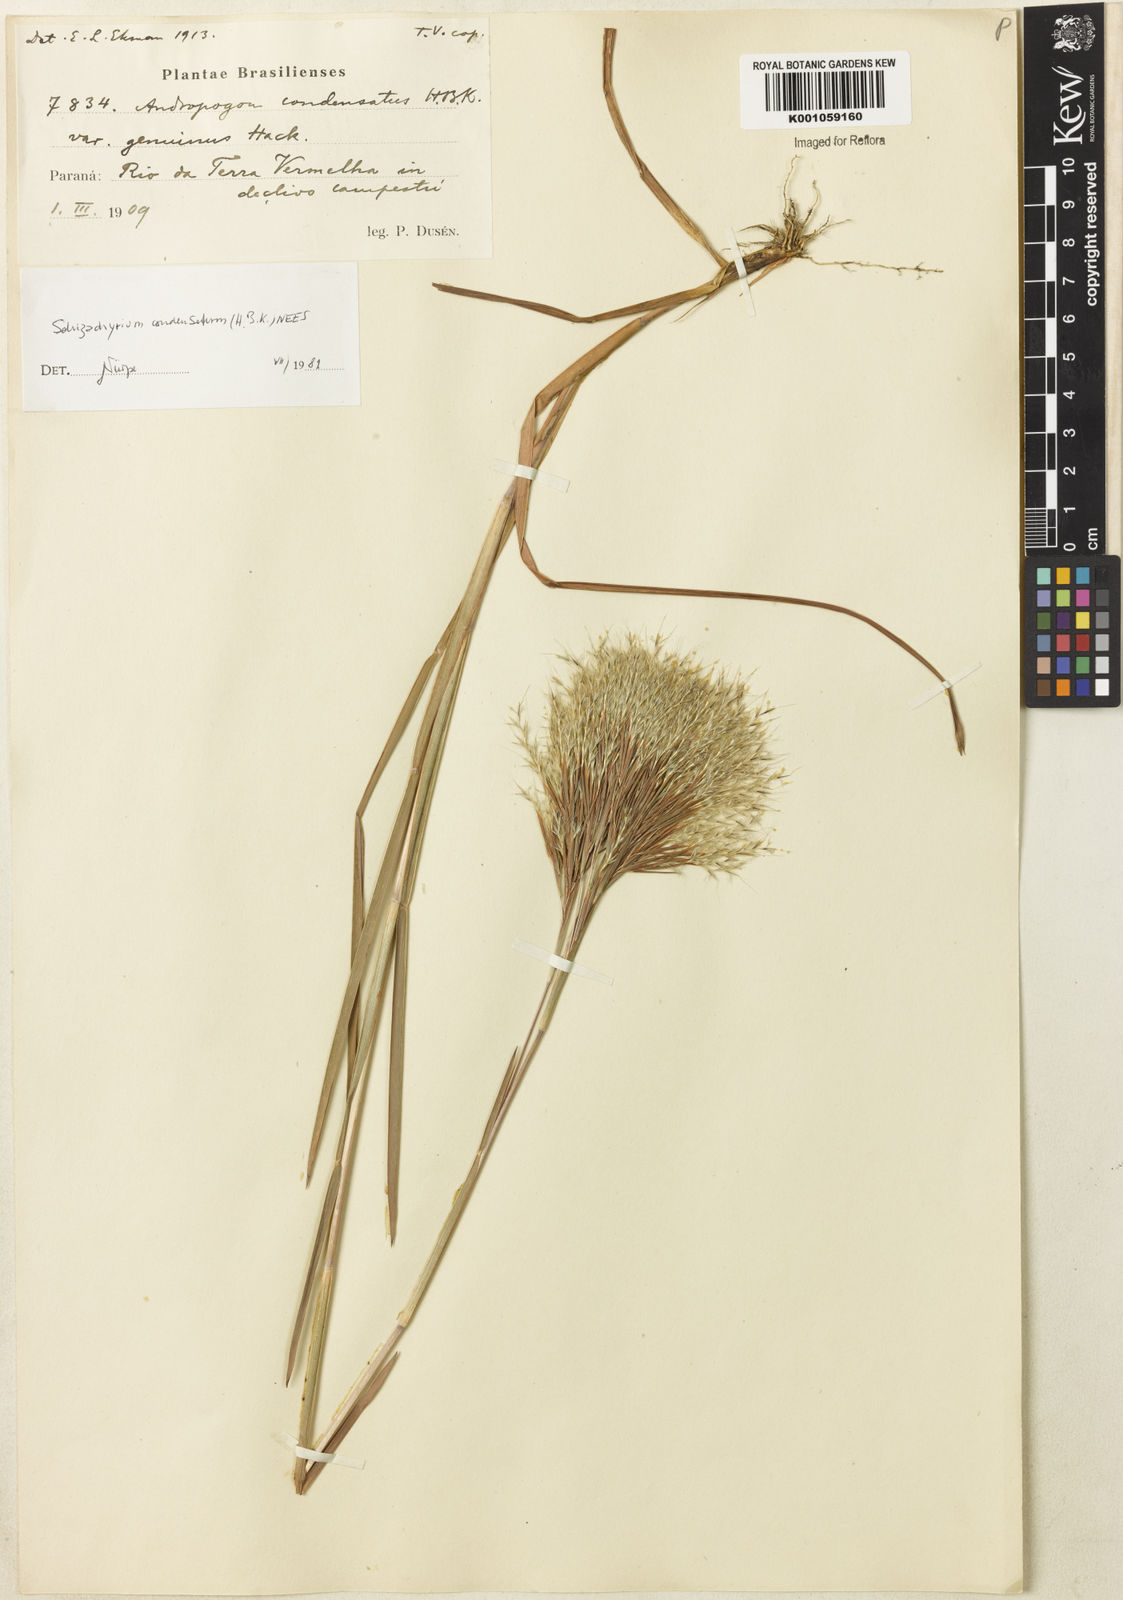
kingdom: Plantae
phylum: Tracheophyta
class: Liliopsida
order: Poales
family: Poaceae
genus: Schizachyrium
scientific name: Schizachyrium condensatum
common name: Bush beardgrass
